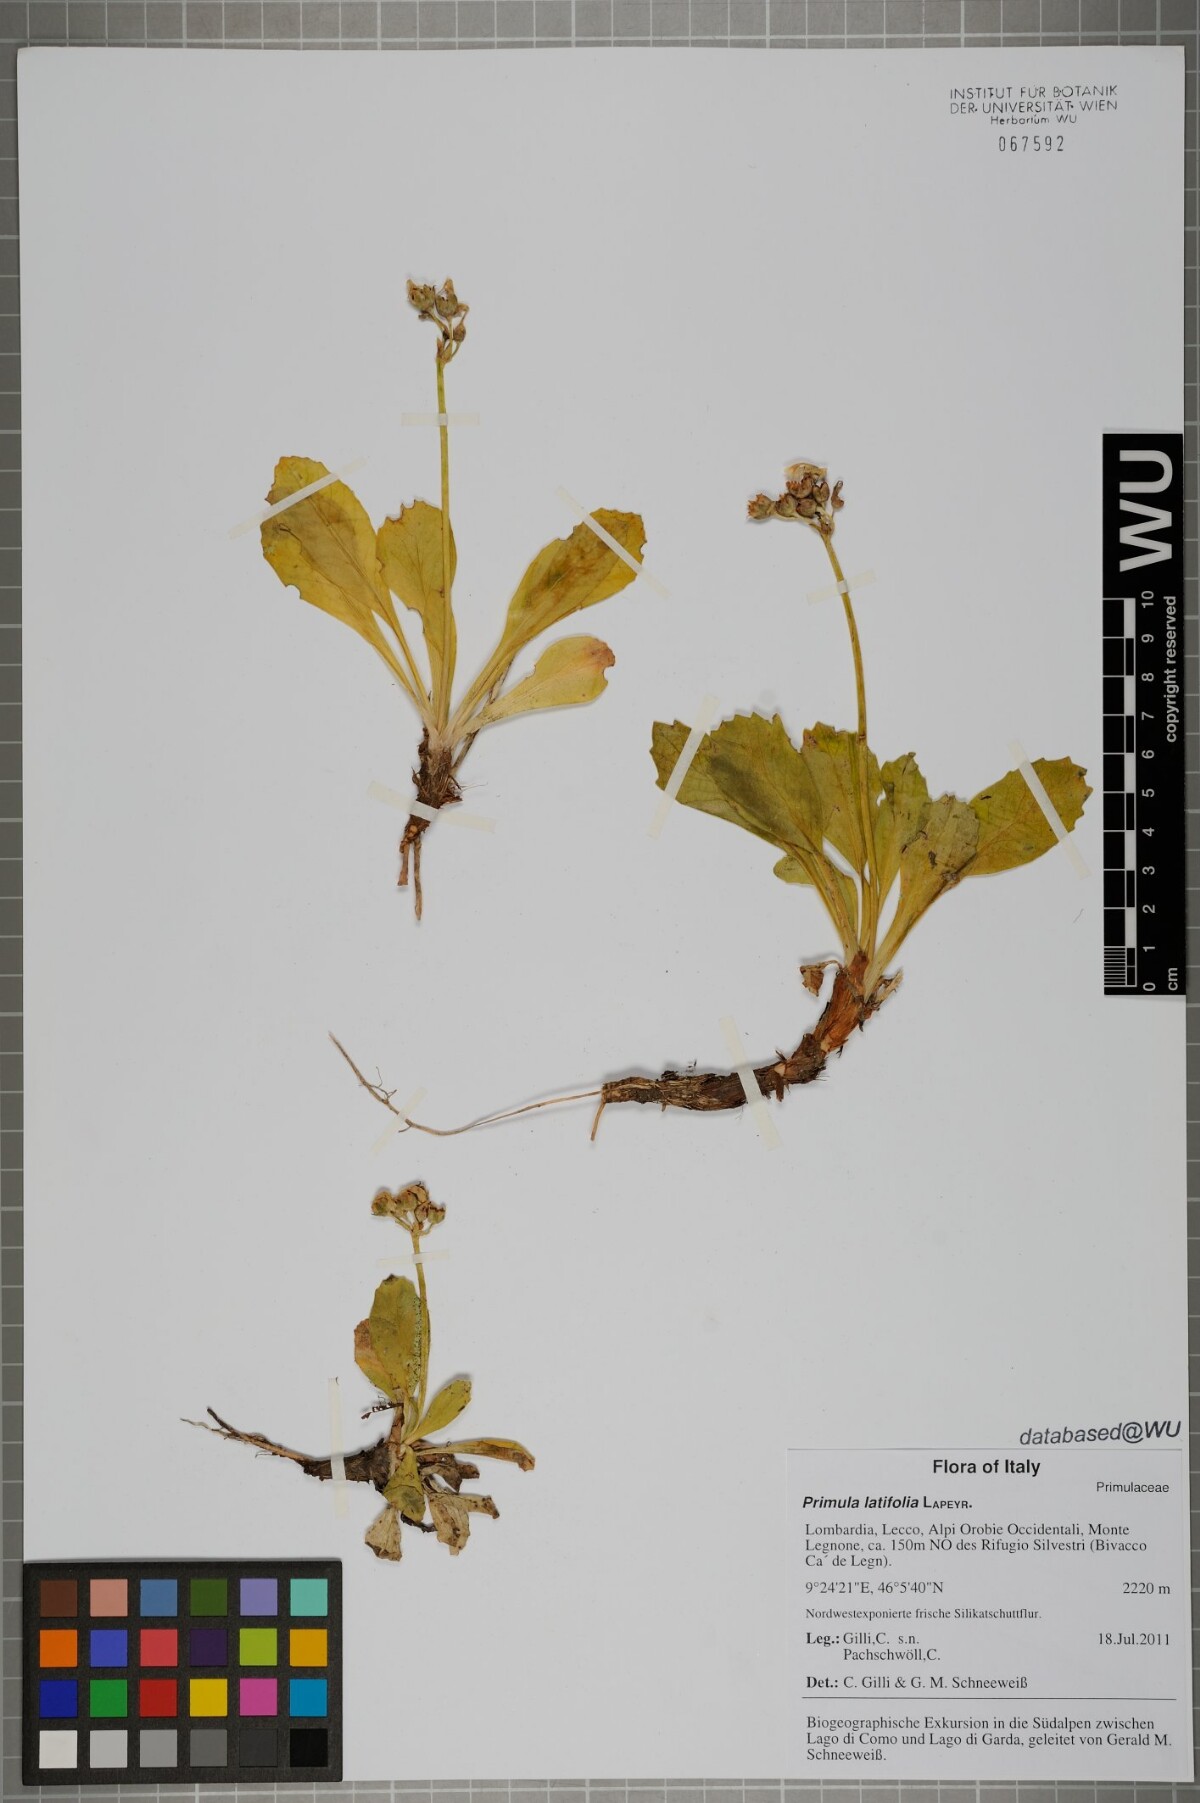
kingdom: Plantae
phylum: Tracheophyta
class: Magnoliopsida
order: Ericales
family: Primulaceae
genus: Primula
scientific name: Primula latifolia
